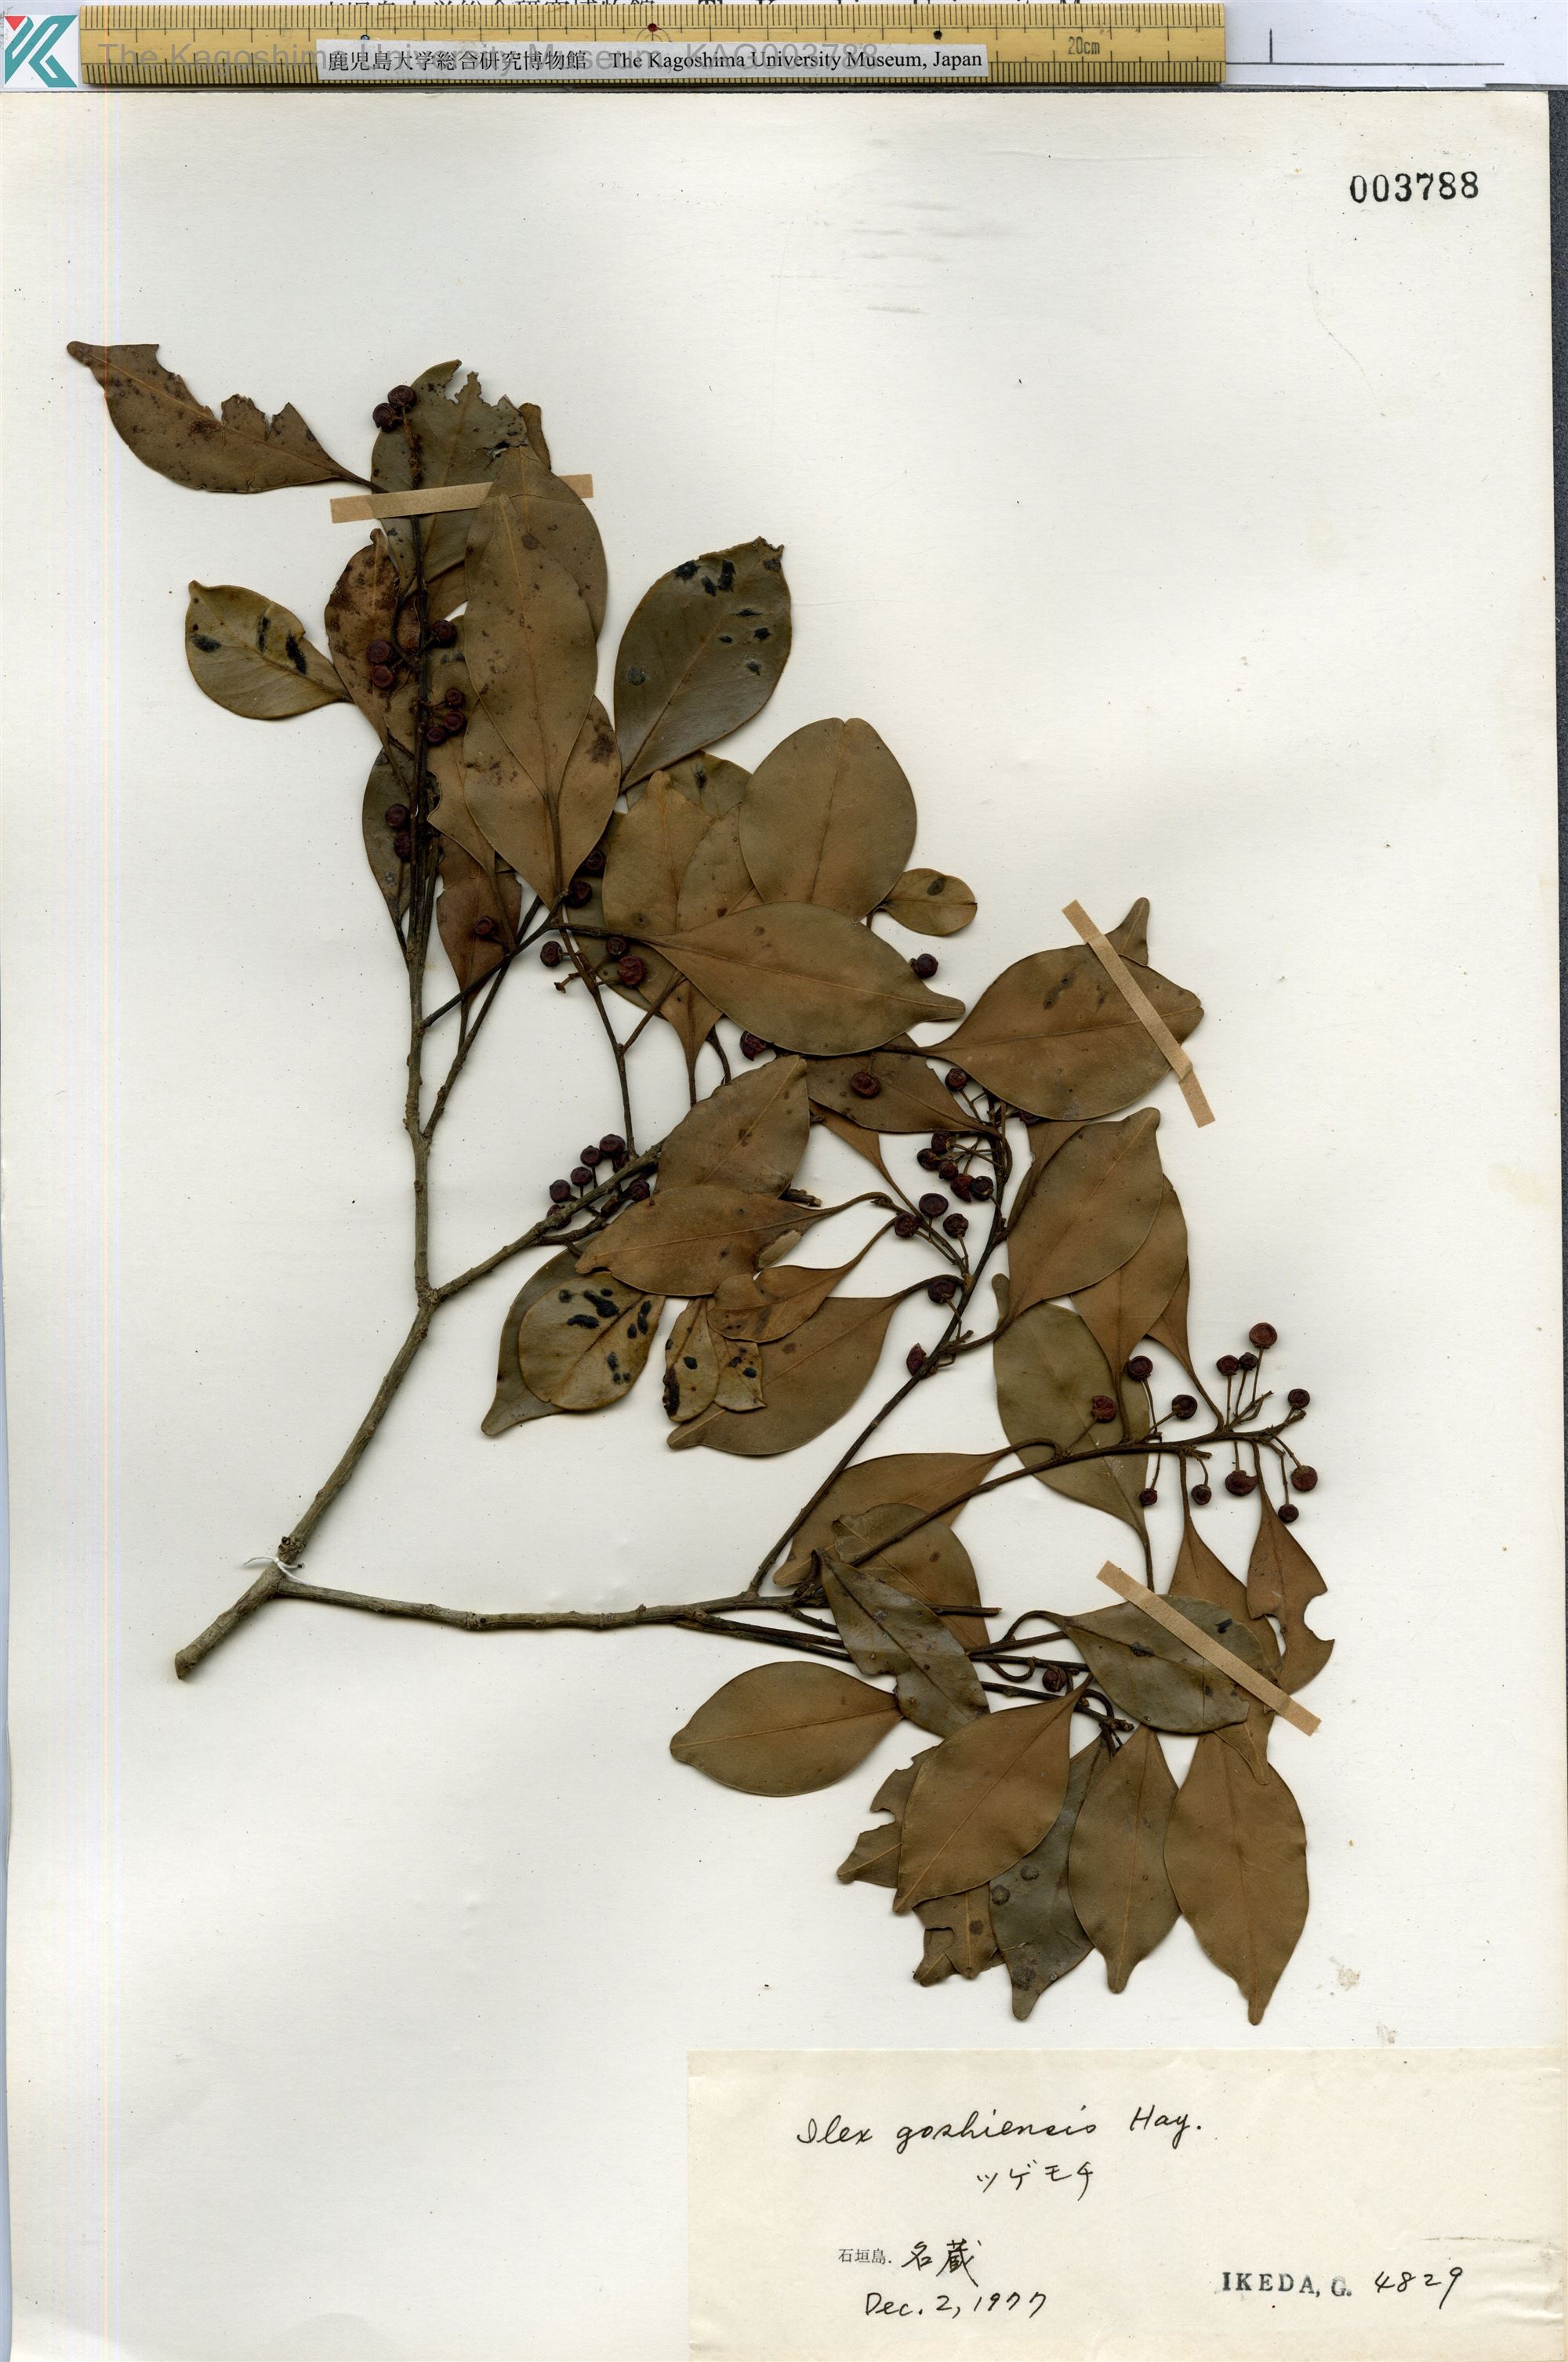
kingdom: Plantae
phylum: Tracheophyta
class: Magnoliopsida
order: Aquifoliales
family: Aquifoliaceae
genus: Ilex
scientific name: Ilex goshiensis
